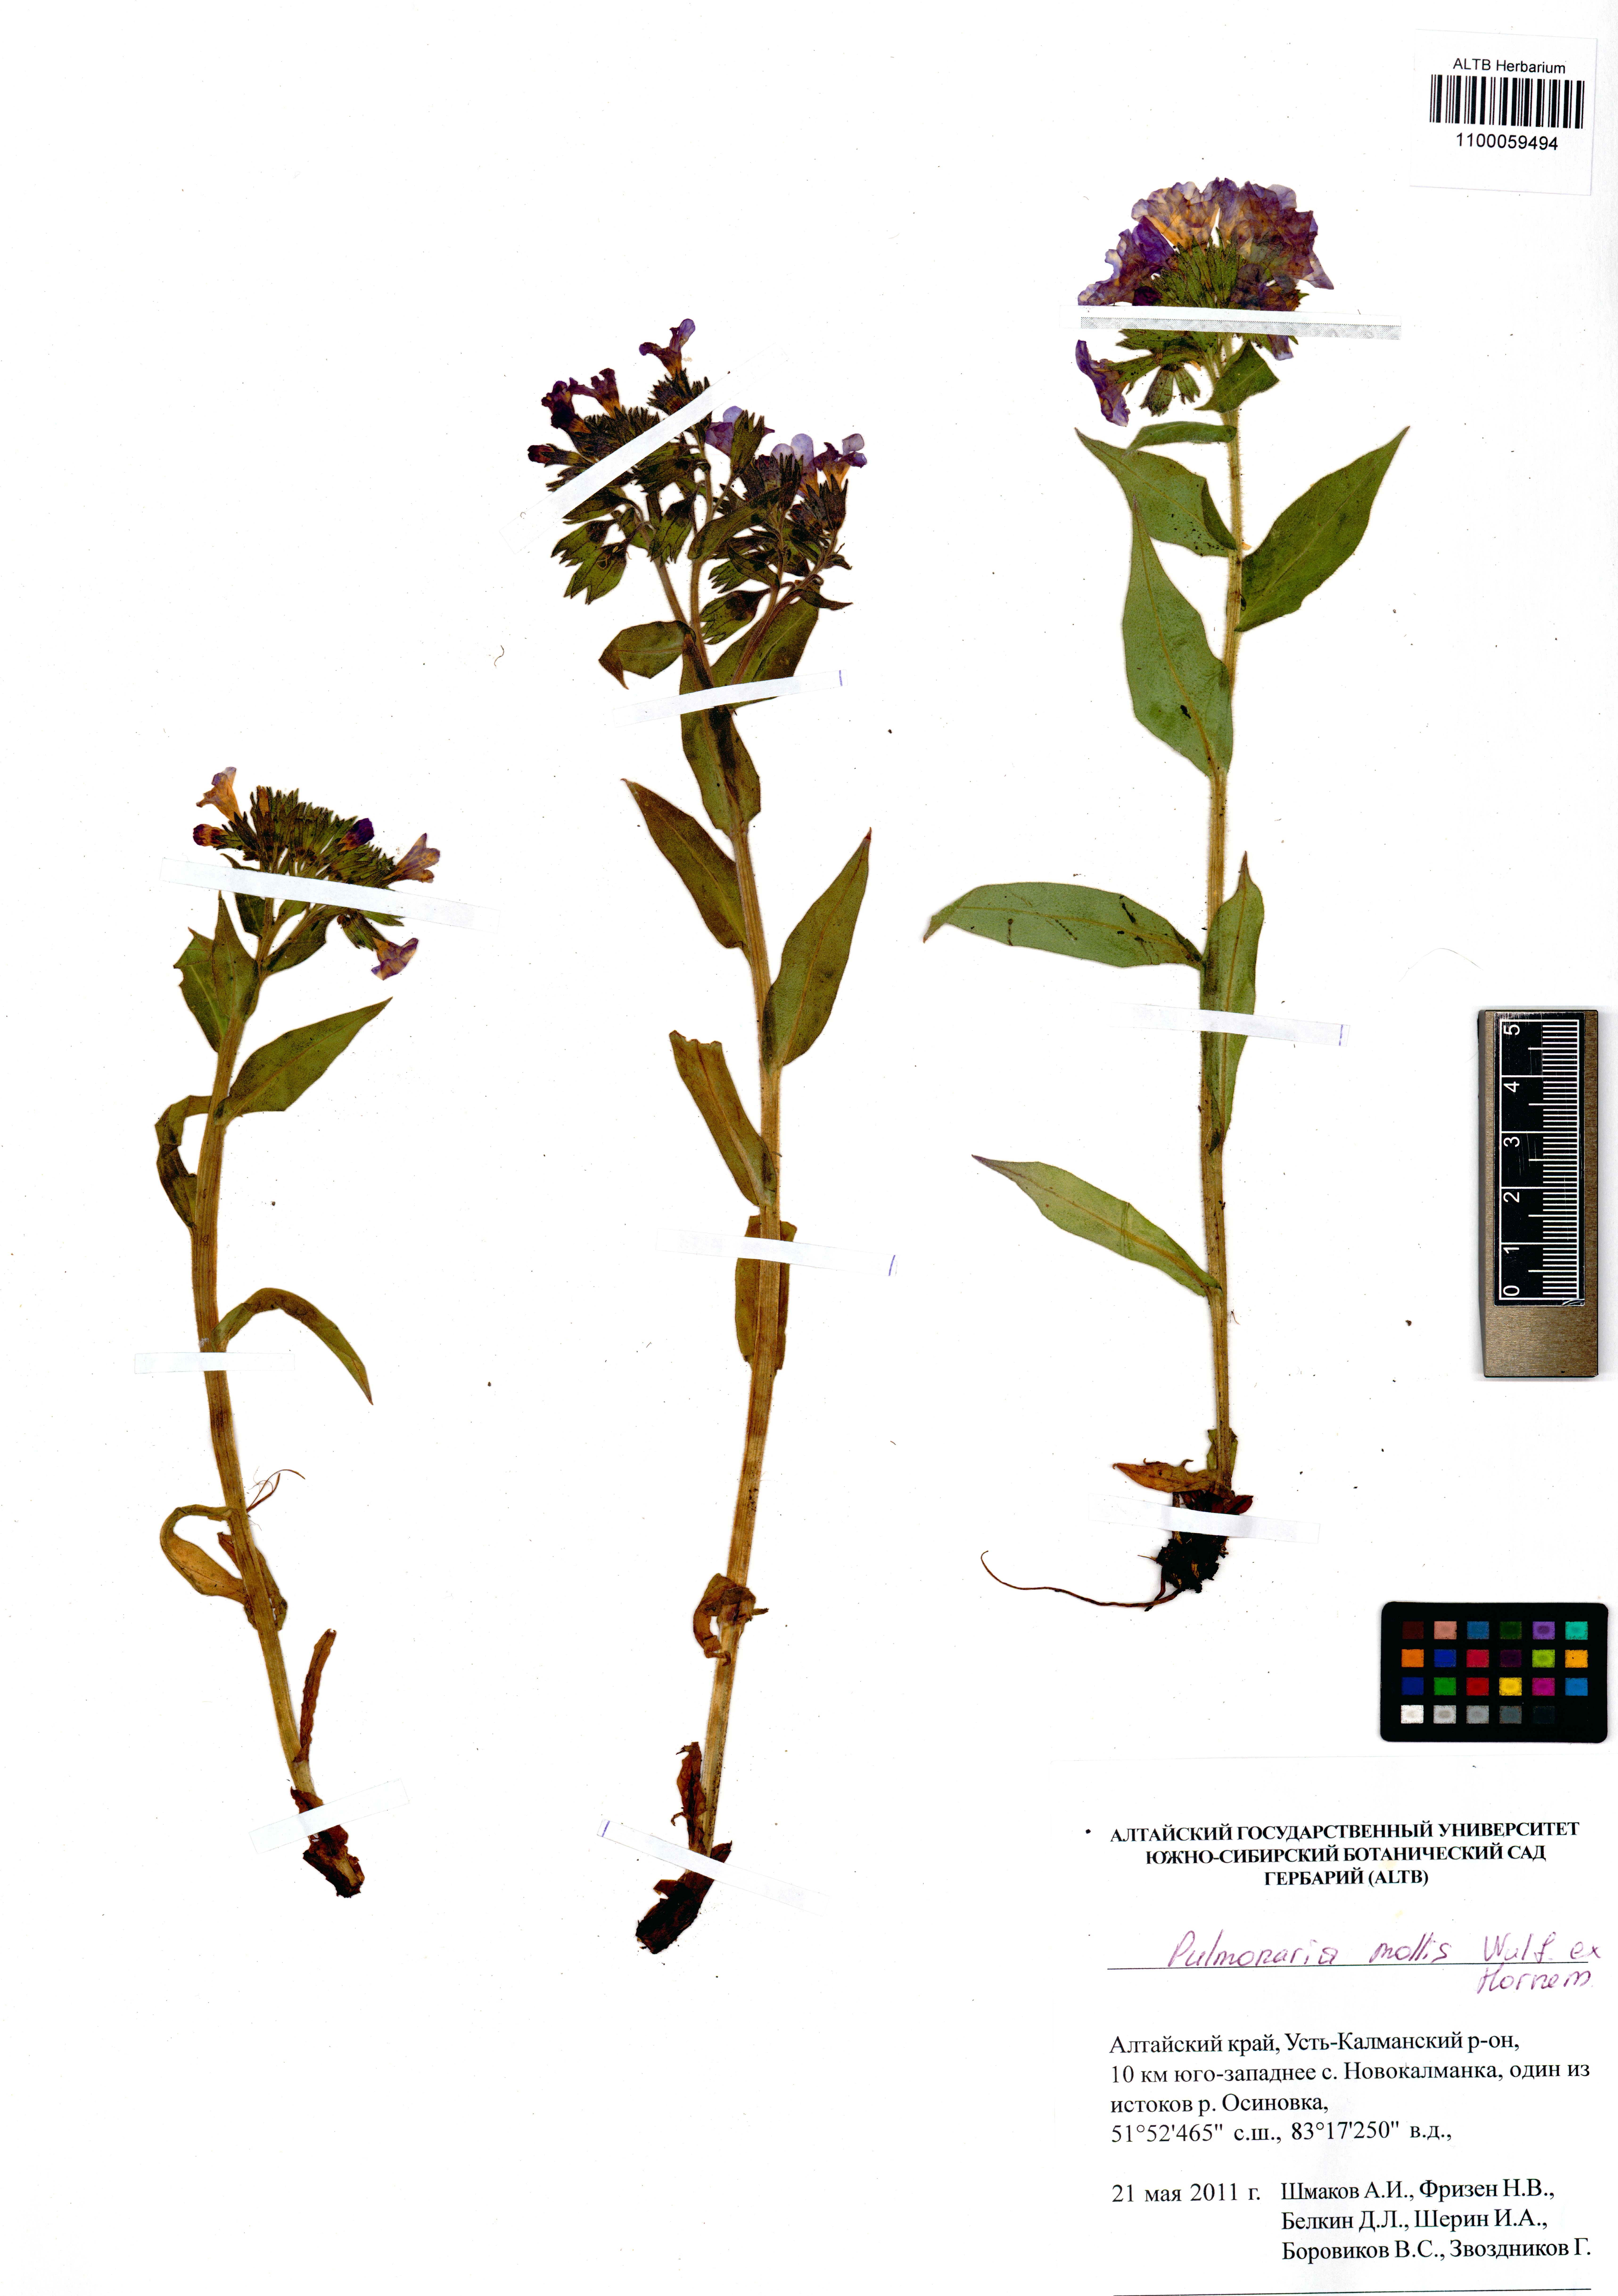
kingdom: Plantae
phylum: Tracheophyta
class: Magnoliopsida
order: Boraginales
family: Boraginaceae
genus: Pulmonaria
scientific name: Pulmonaria mollis
